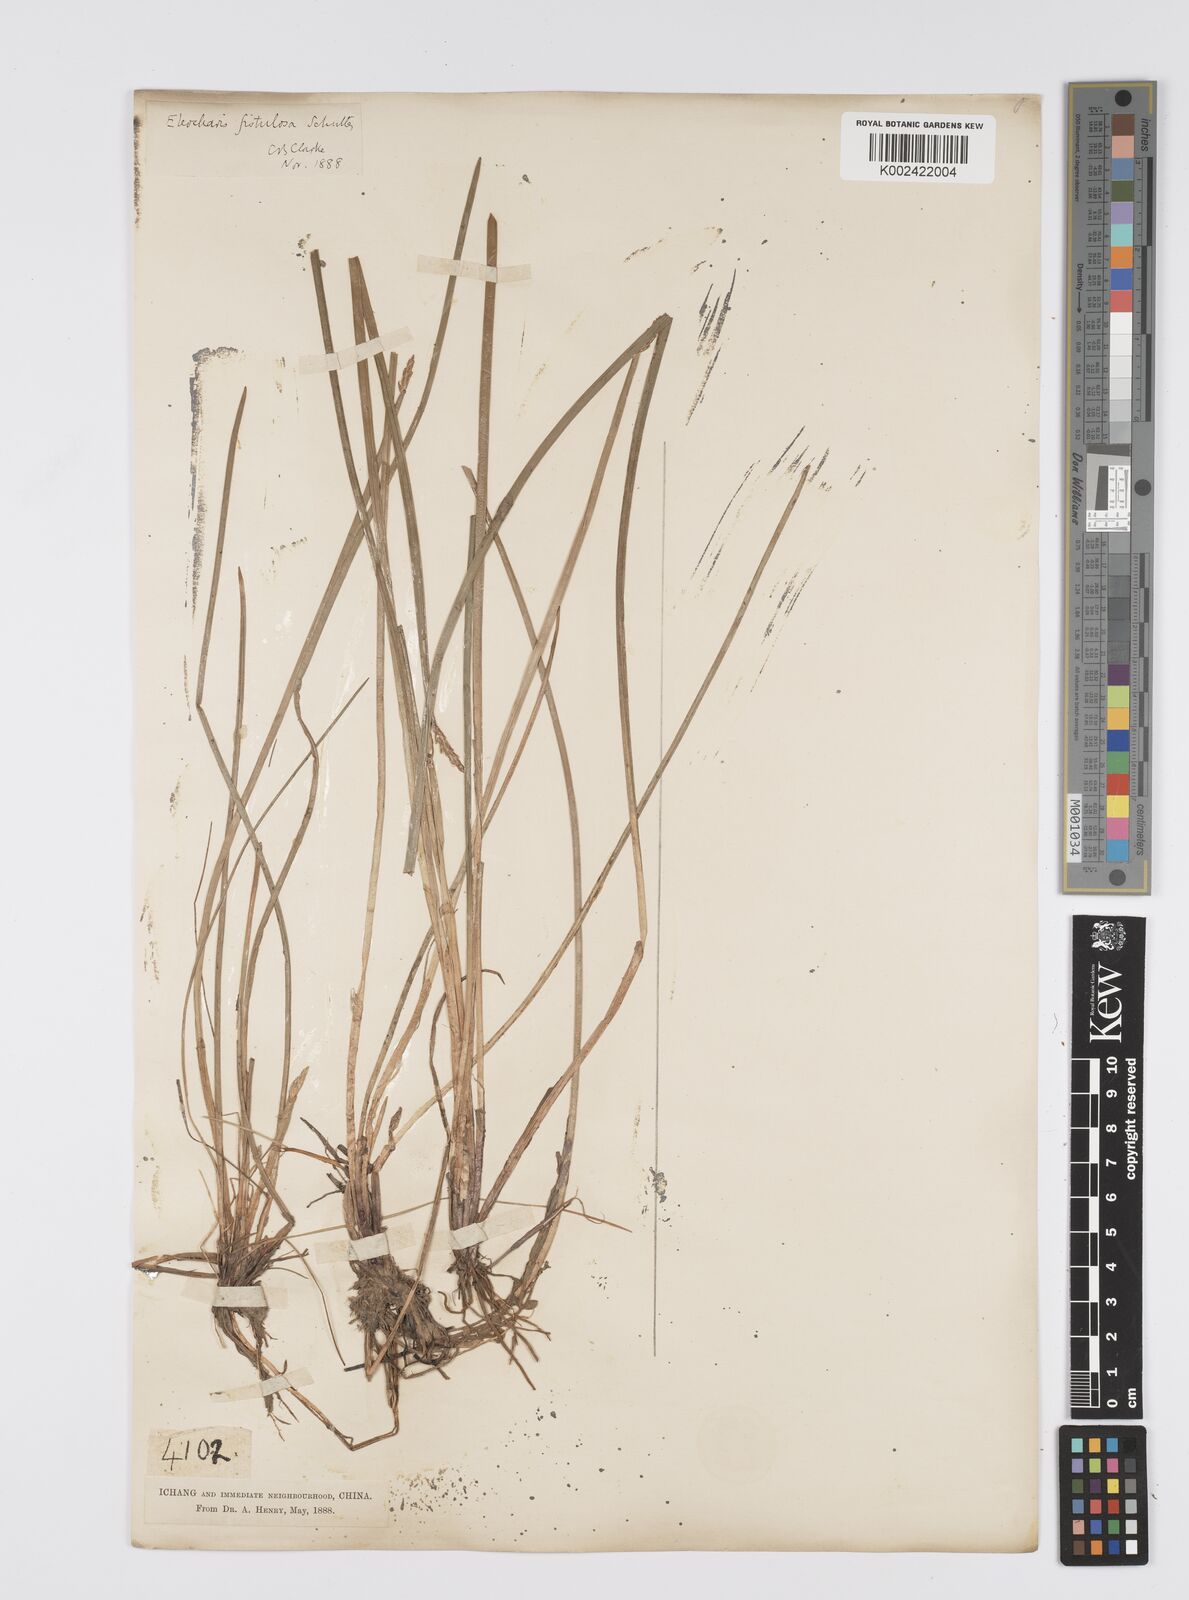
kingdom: Plantae
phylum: Tracheophyta
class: Liliopsida
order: Poales
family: Cyperaceae
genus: Eleocharis
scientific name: Eleocharis acutangula
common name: Acute spikerush
